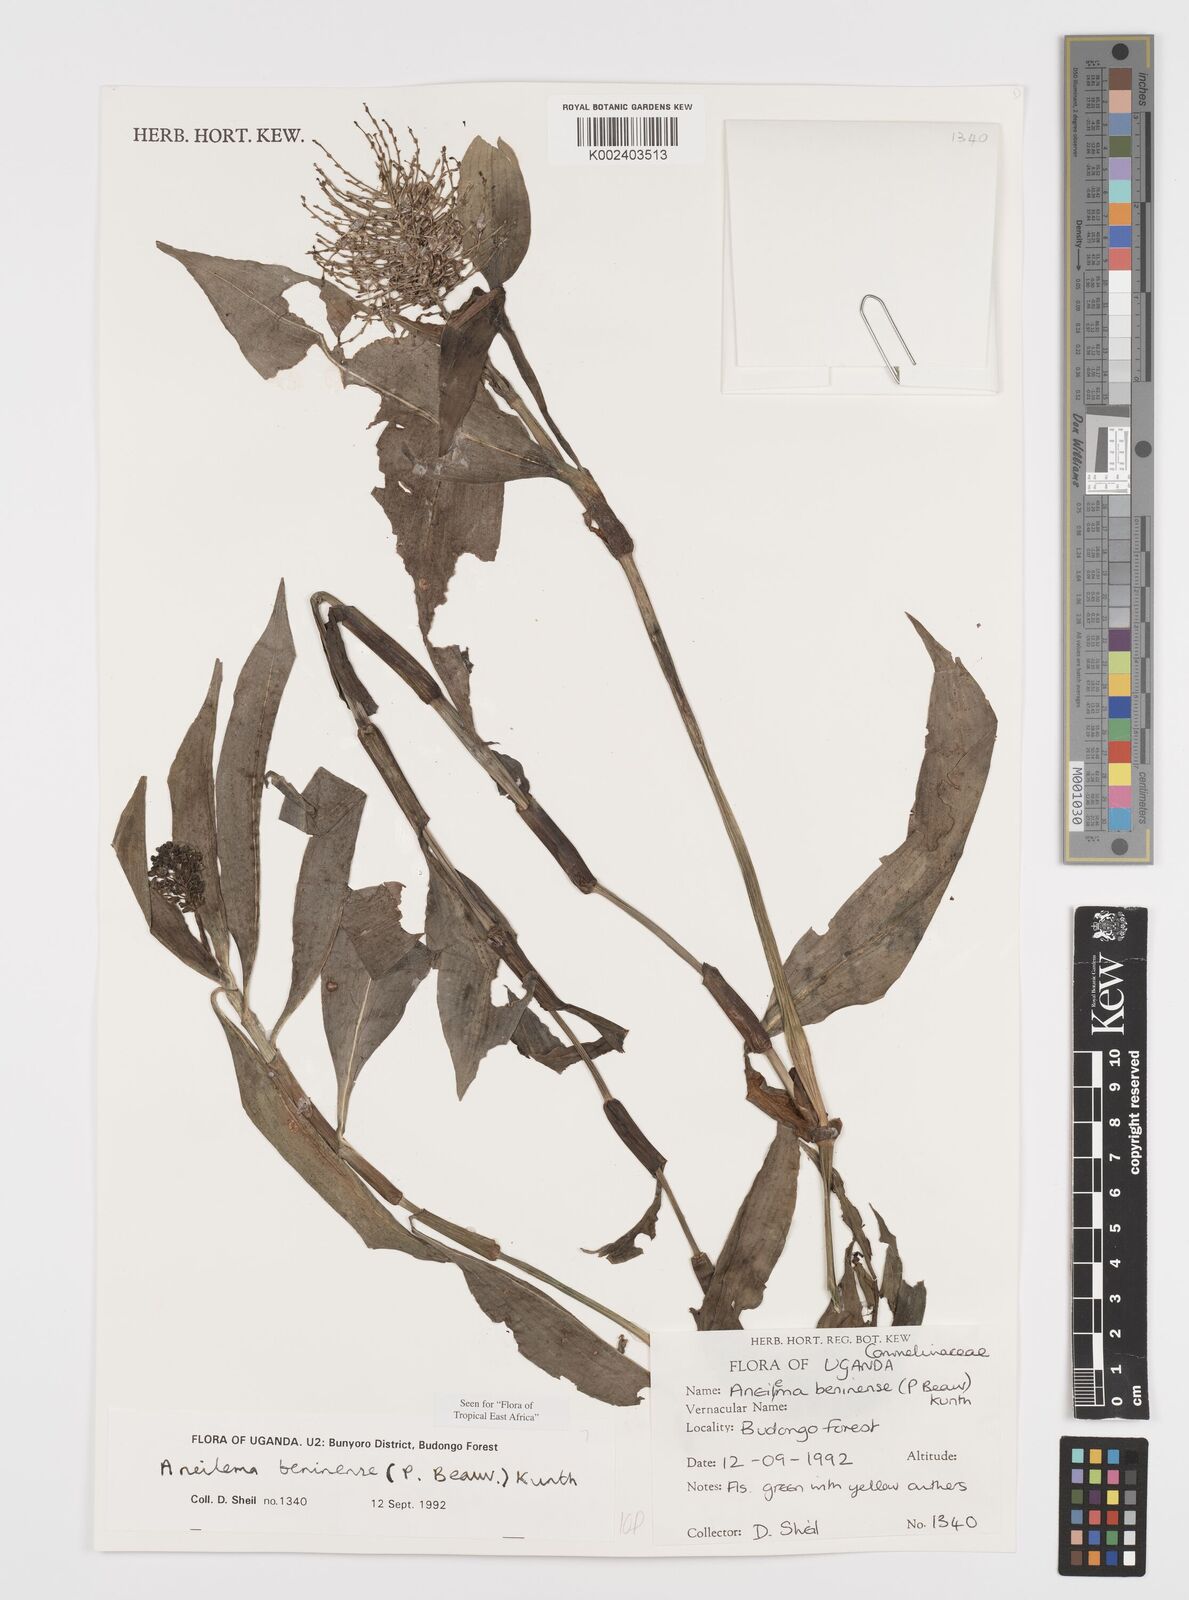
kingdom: Plantae
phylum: Tracheophyta
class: Liliopsida
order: Commelinales
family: Commelinaceae
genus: Aneilema
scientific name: Aneilema beniniense
